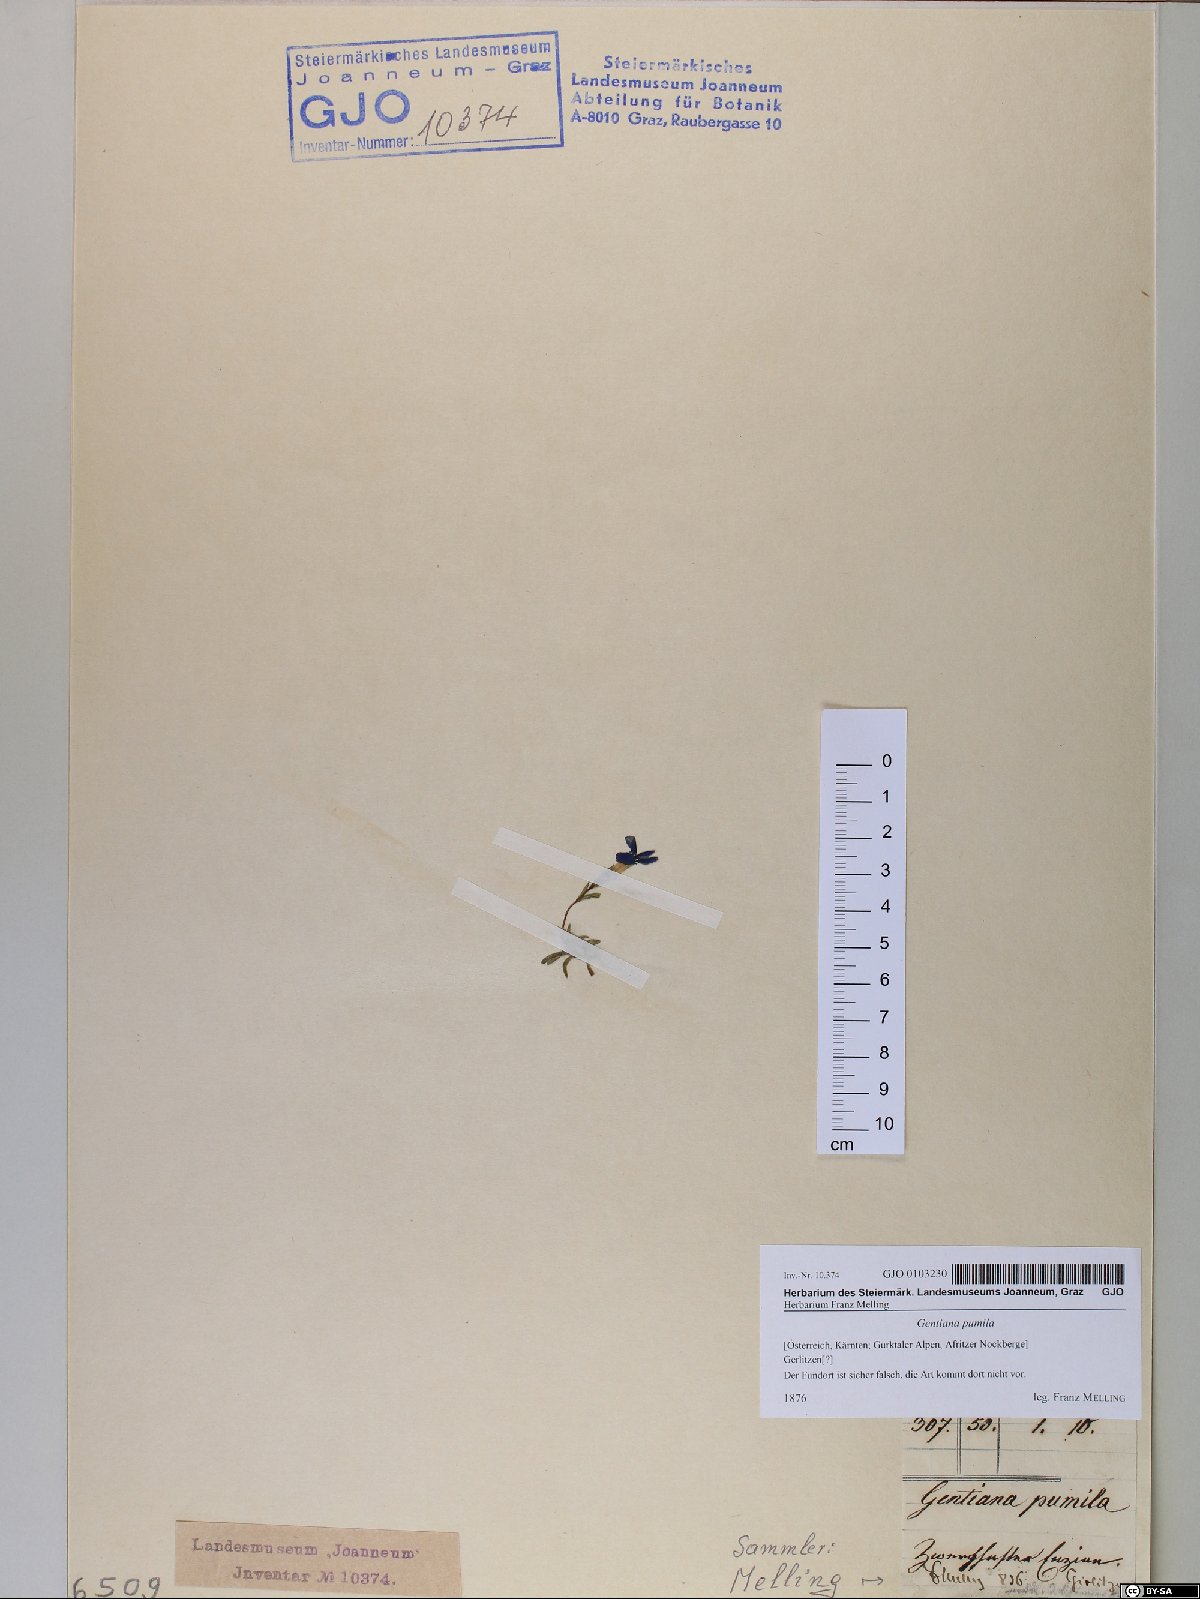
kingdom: Plantae
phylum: Tracheophyta
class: Magnoliopsida
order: Gentianales
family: Gentianaceae
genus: Gentiana
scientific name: Gentiana pumila
